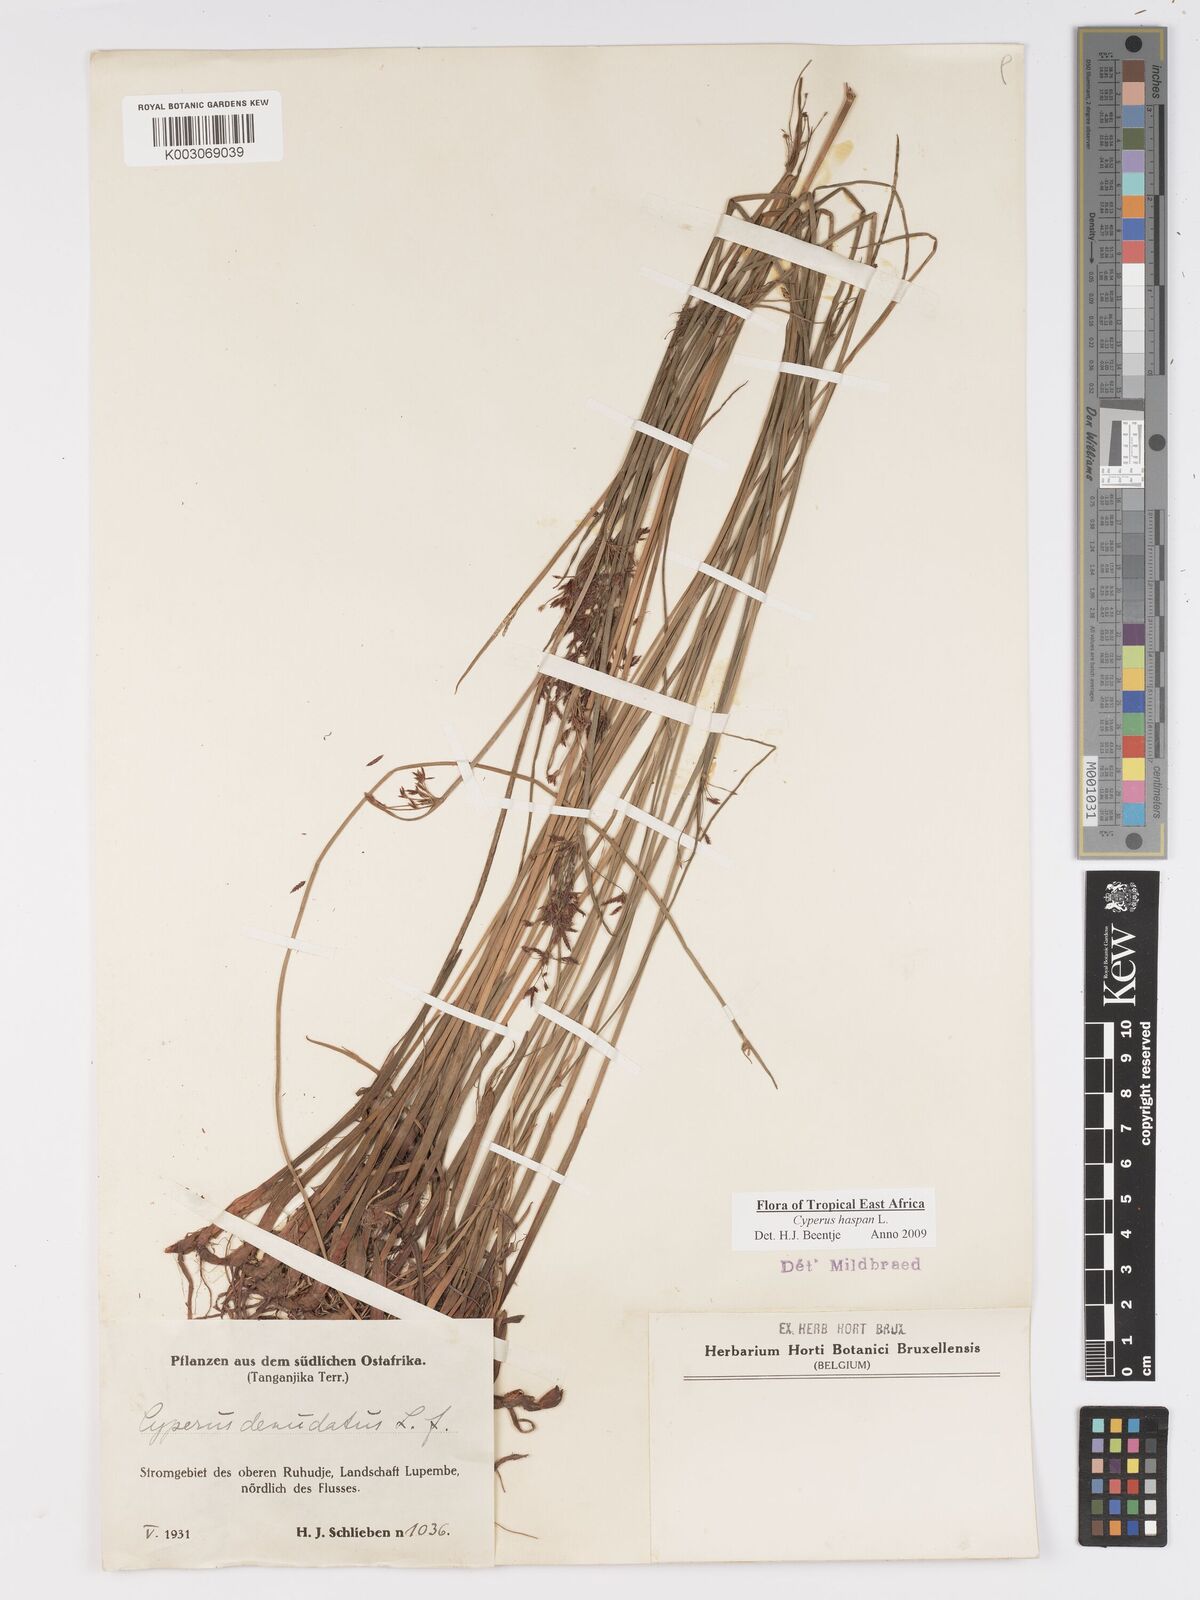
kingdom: Plantae
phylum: Tracheophyta
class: Liliopsida
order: Poales
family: Cyperaceae
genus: Cyperus
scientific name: Cyperus haspan
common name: Haspan flatsedge
